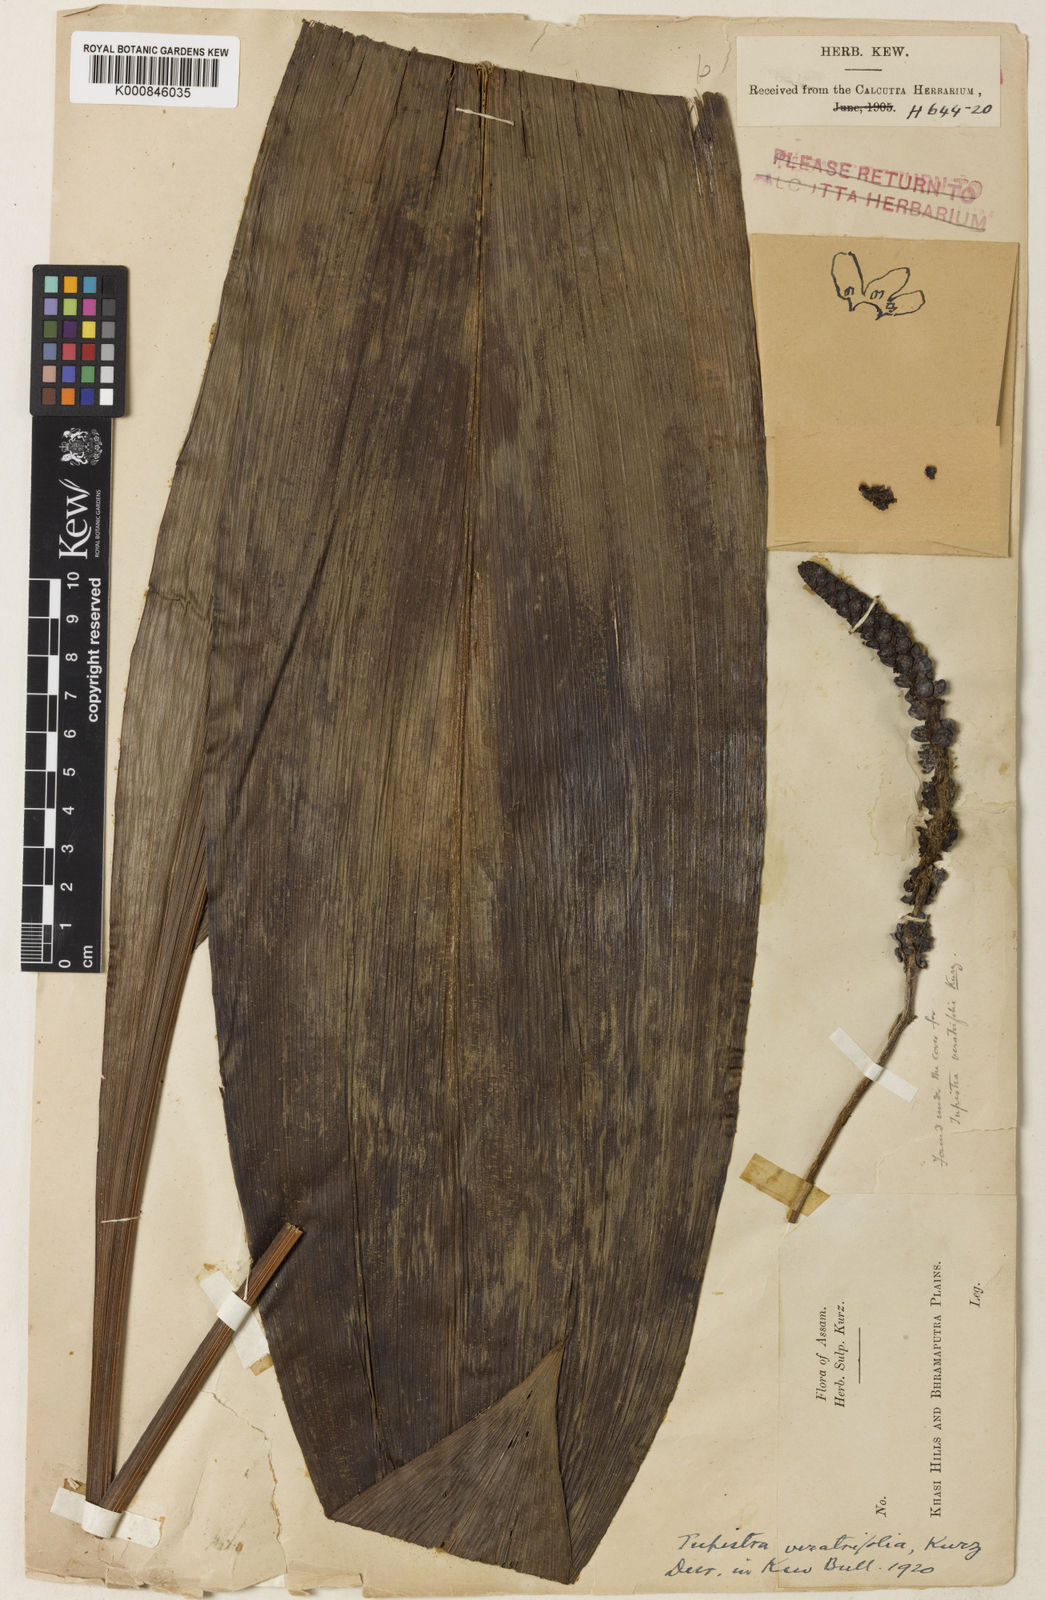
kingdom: Plantae
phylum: Tracheophyta
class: Liliopsida
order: Asparagales
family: Asparagaceae
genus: Tupistra
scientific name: Tupistra stoliczana
